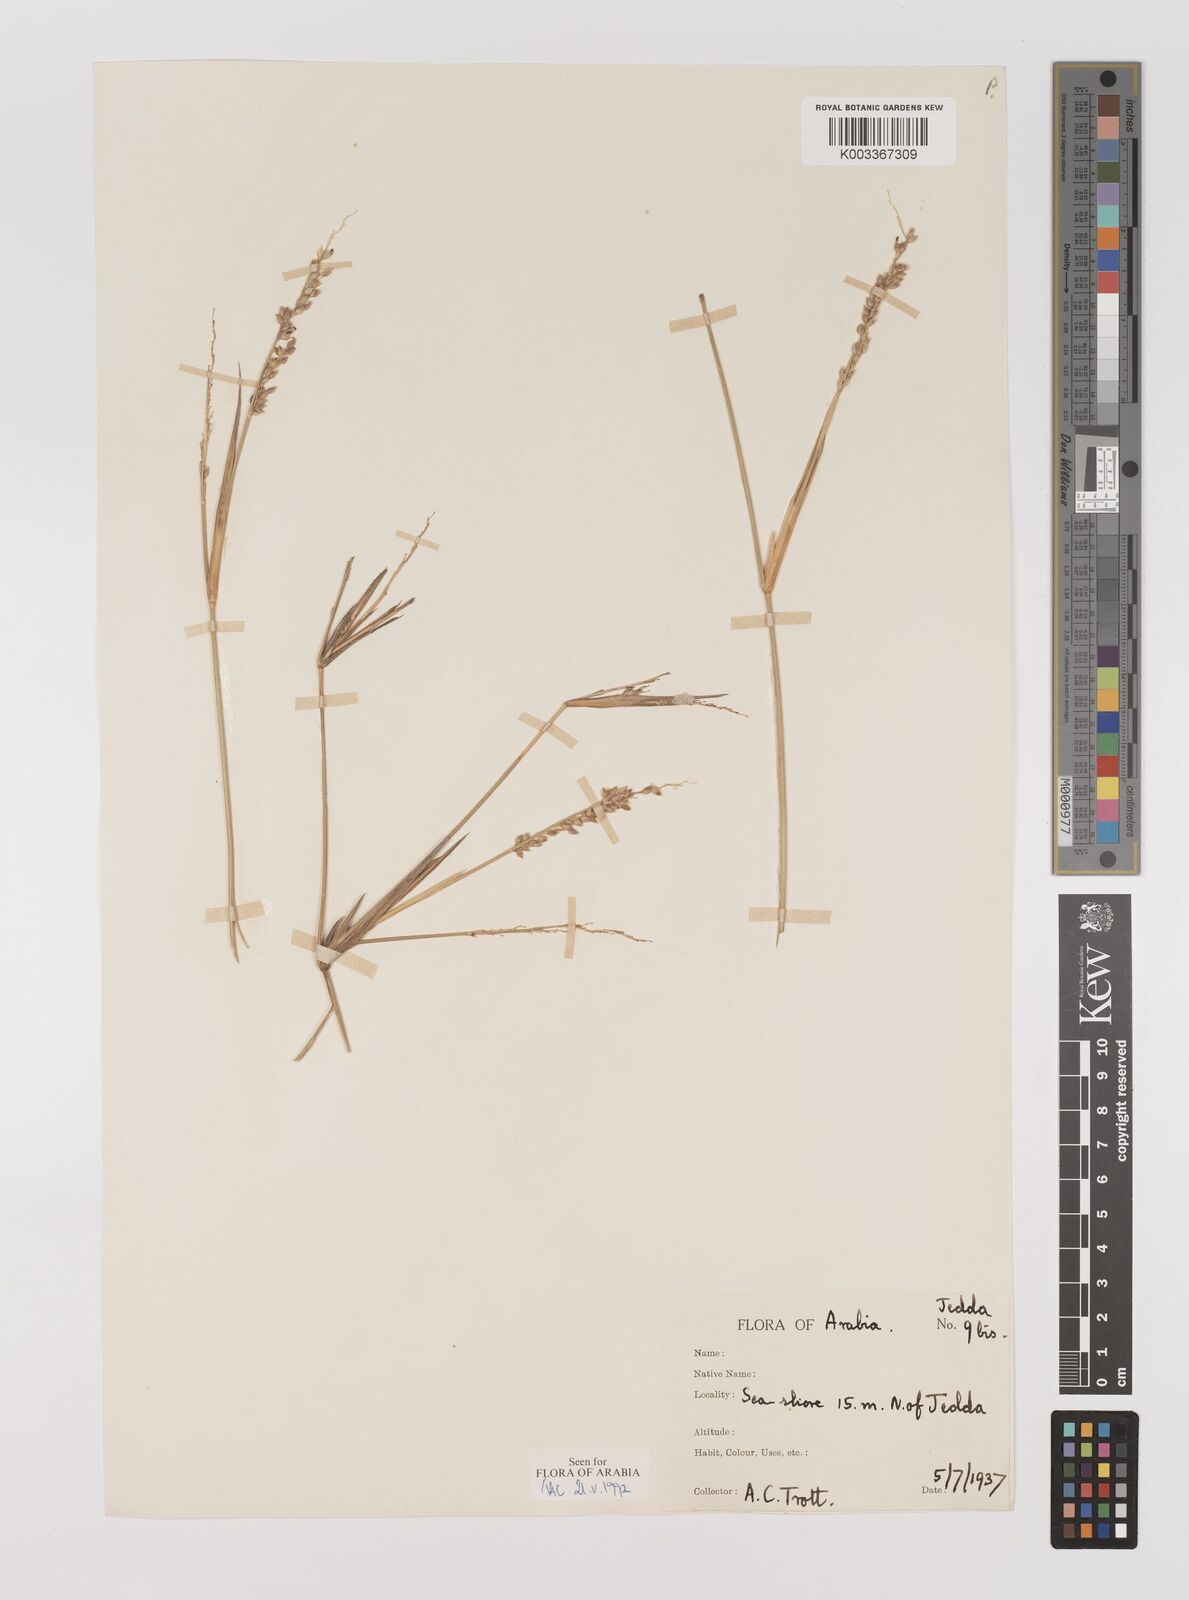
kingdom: Plantae
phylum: Tracheophyta
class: Liliopsida
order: Poales
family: Poaceae
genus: Panicum
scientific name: Panicum turgidum
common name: Desert grass
